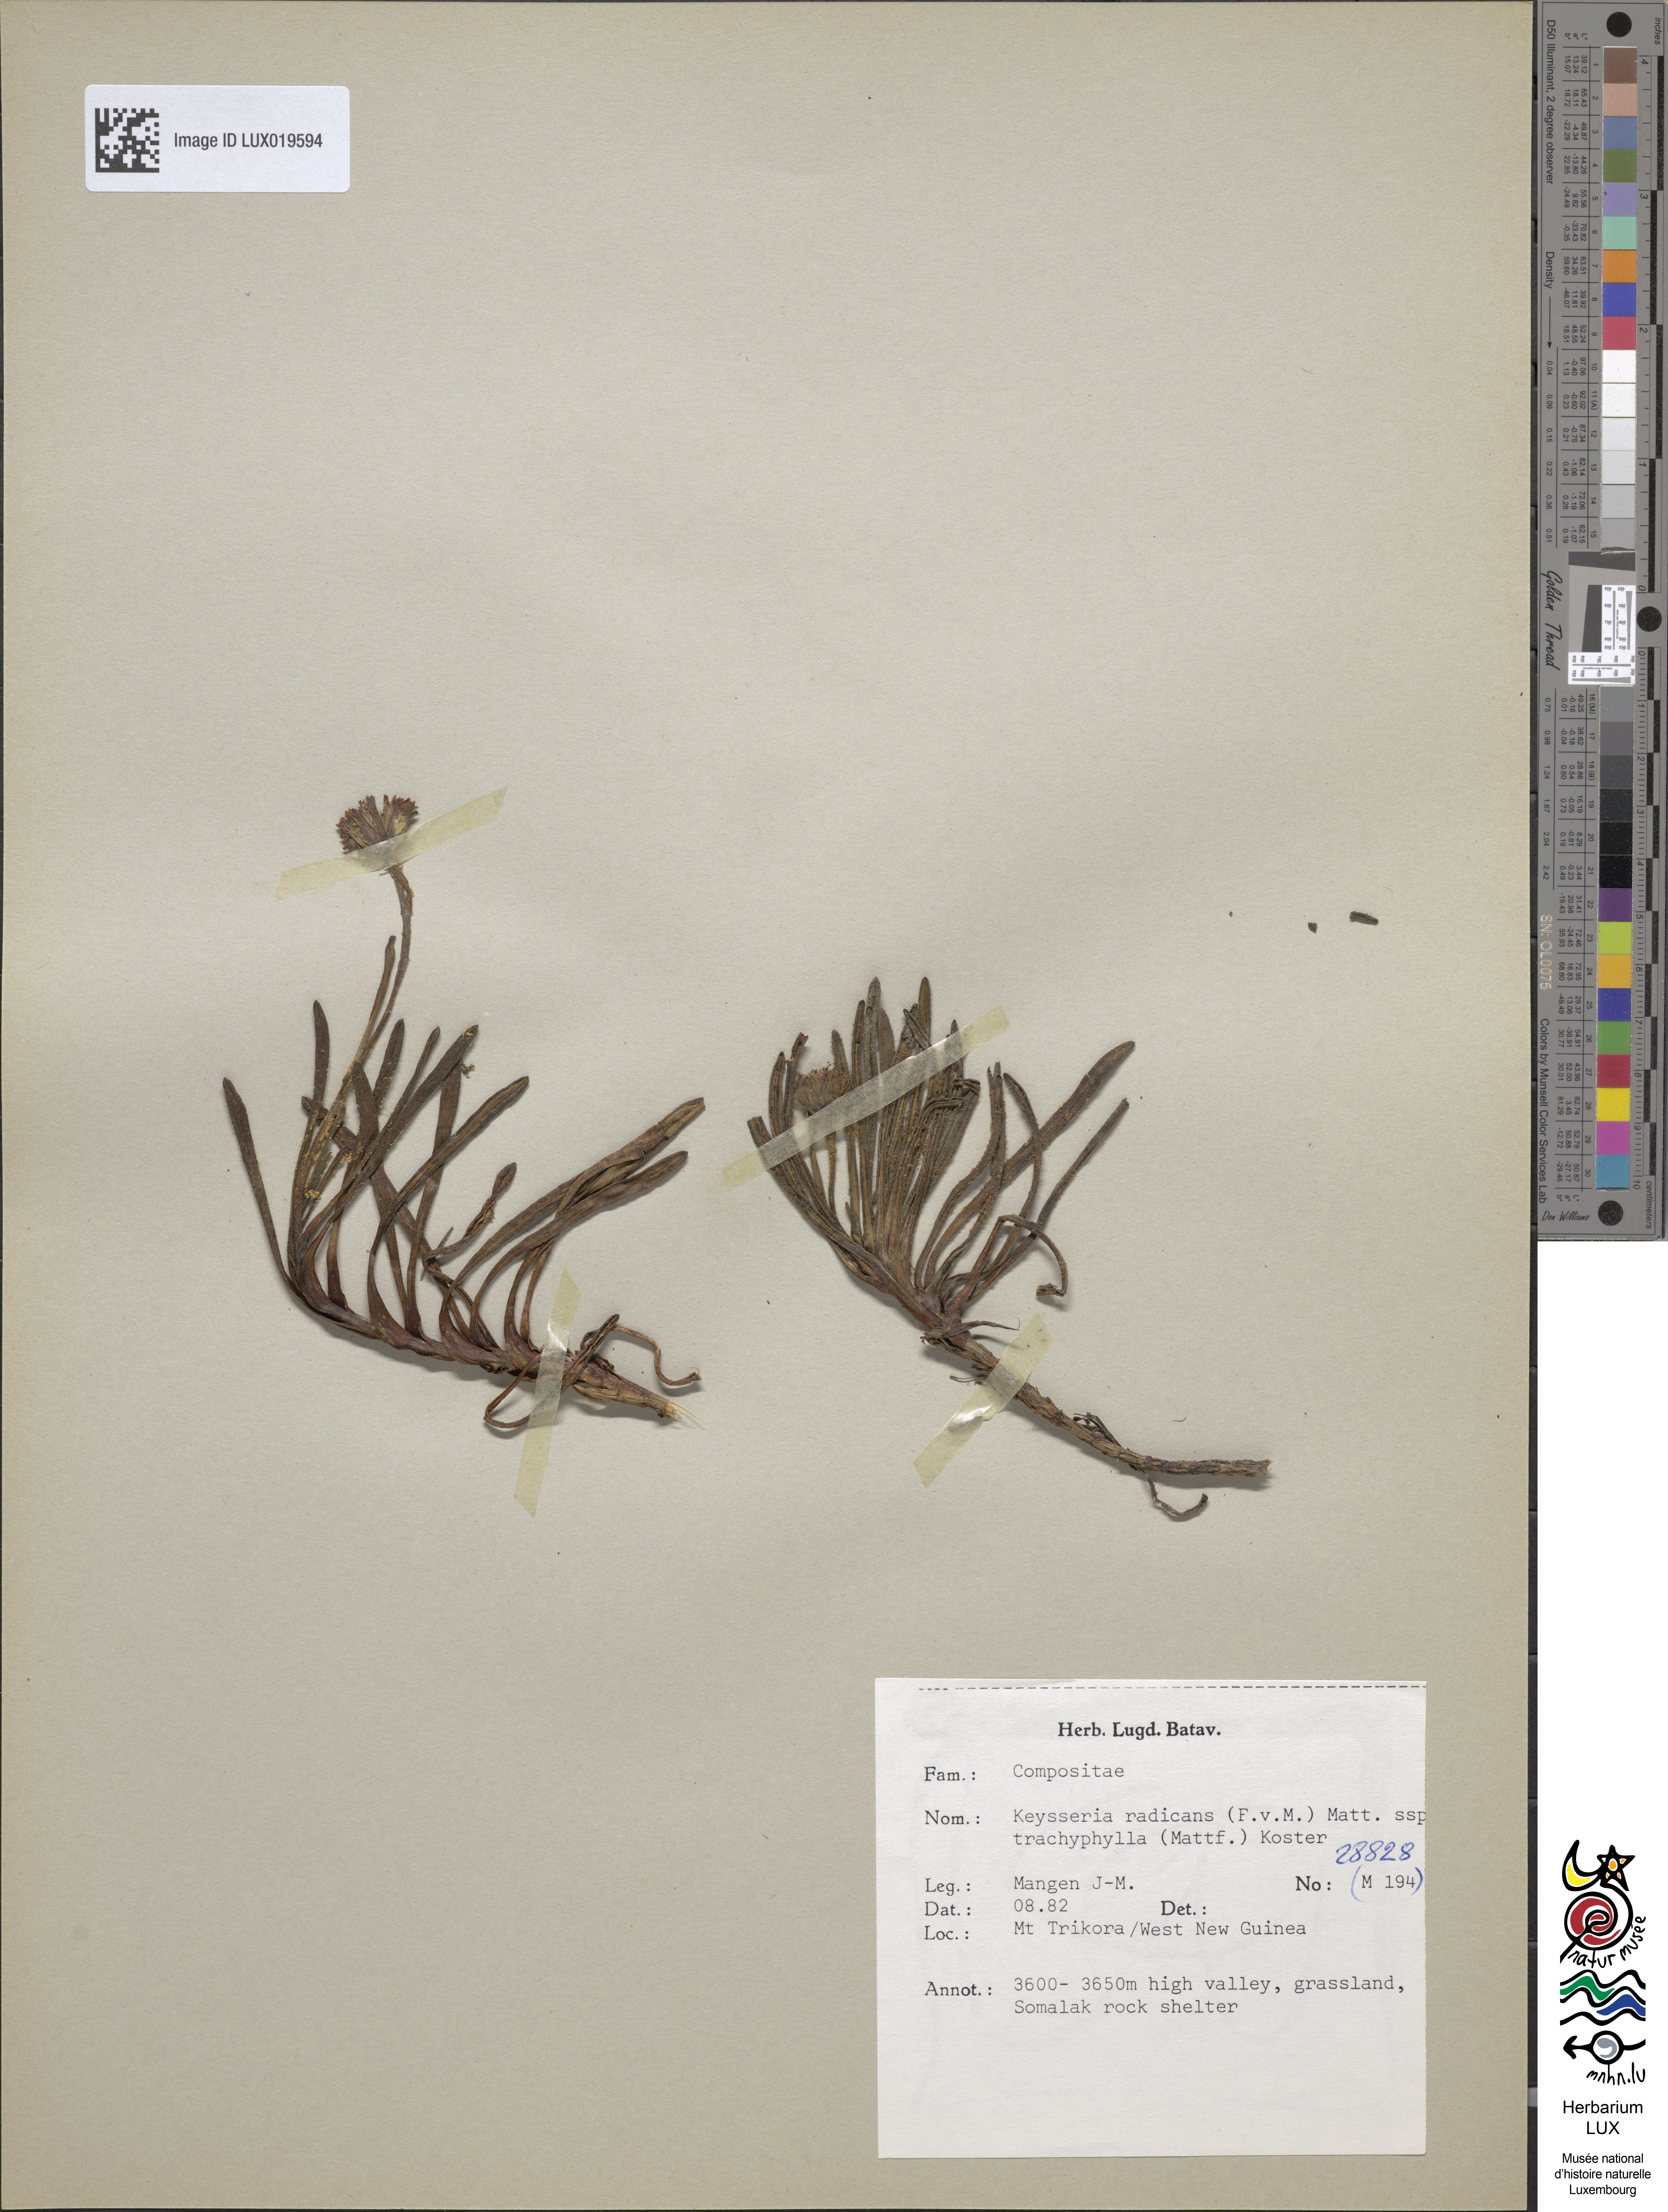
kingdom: Plantae
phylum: Tracheophyta
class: Magnoliopsida
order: Asterales
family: Asteraceae
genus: Keysseria
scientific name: Keysseria radicans
